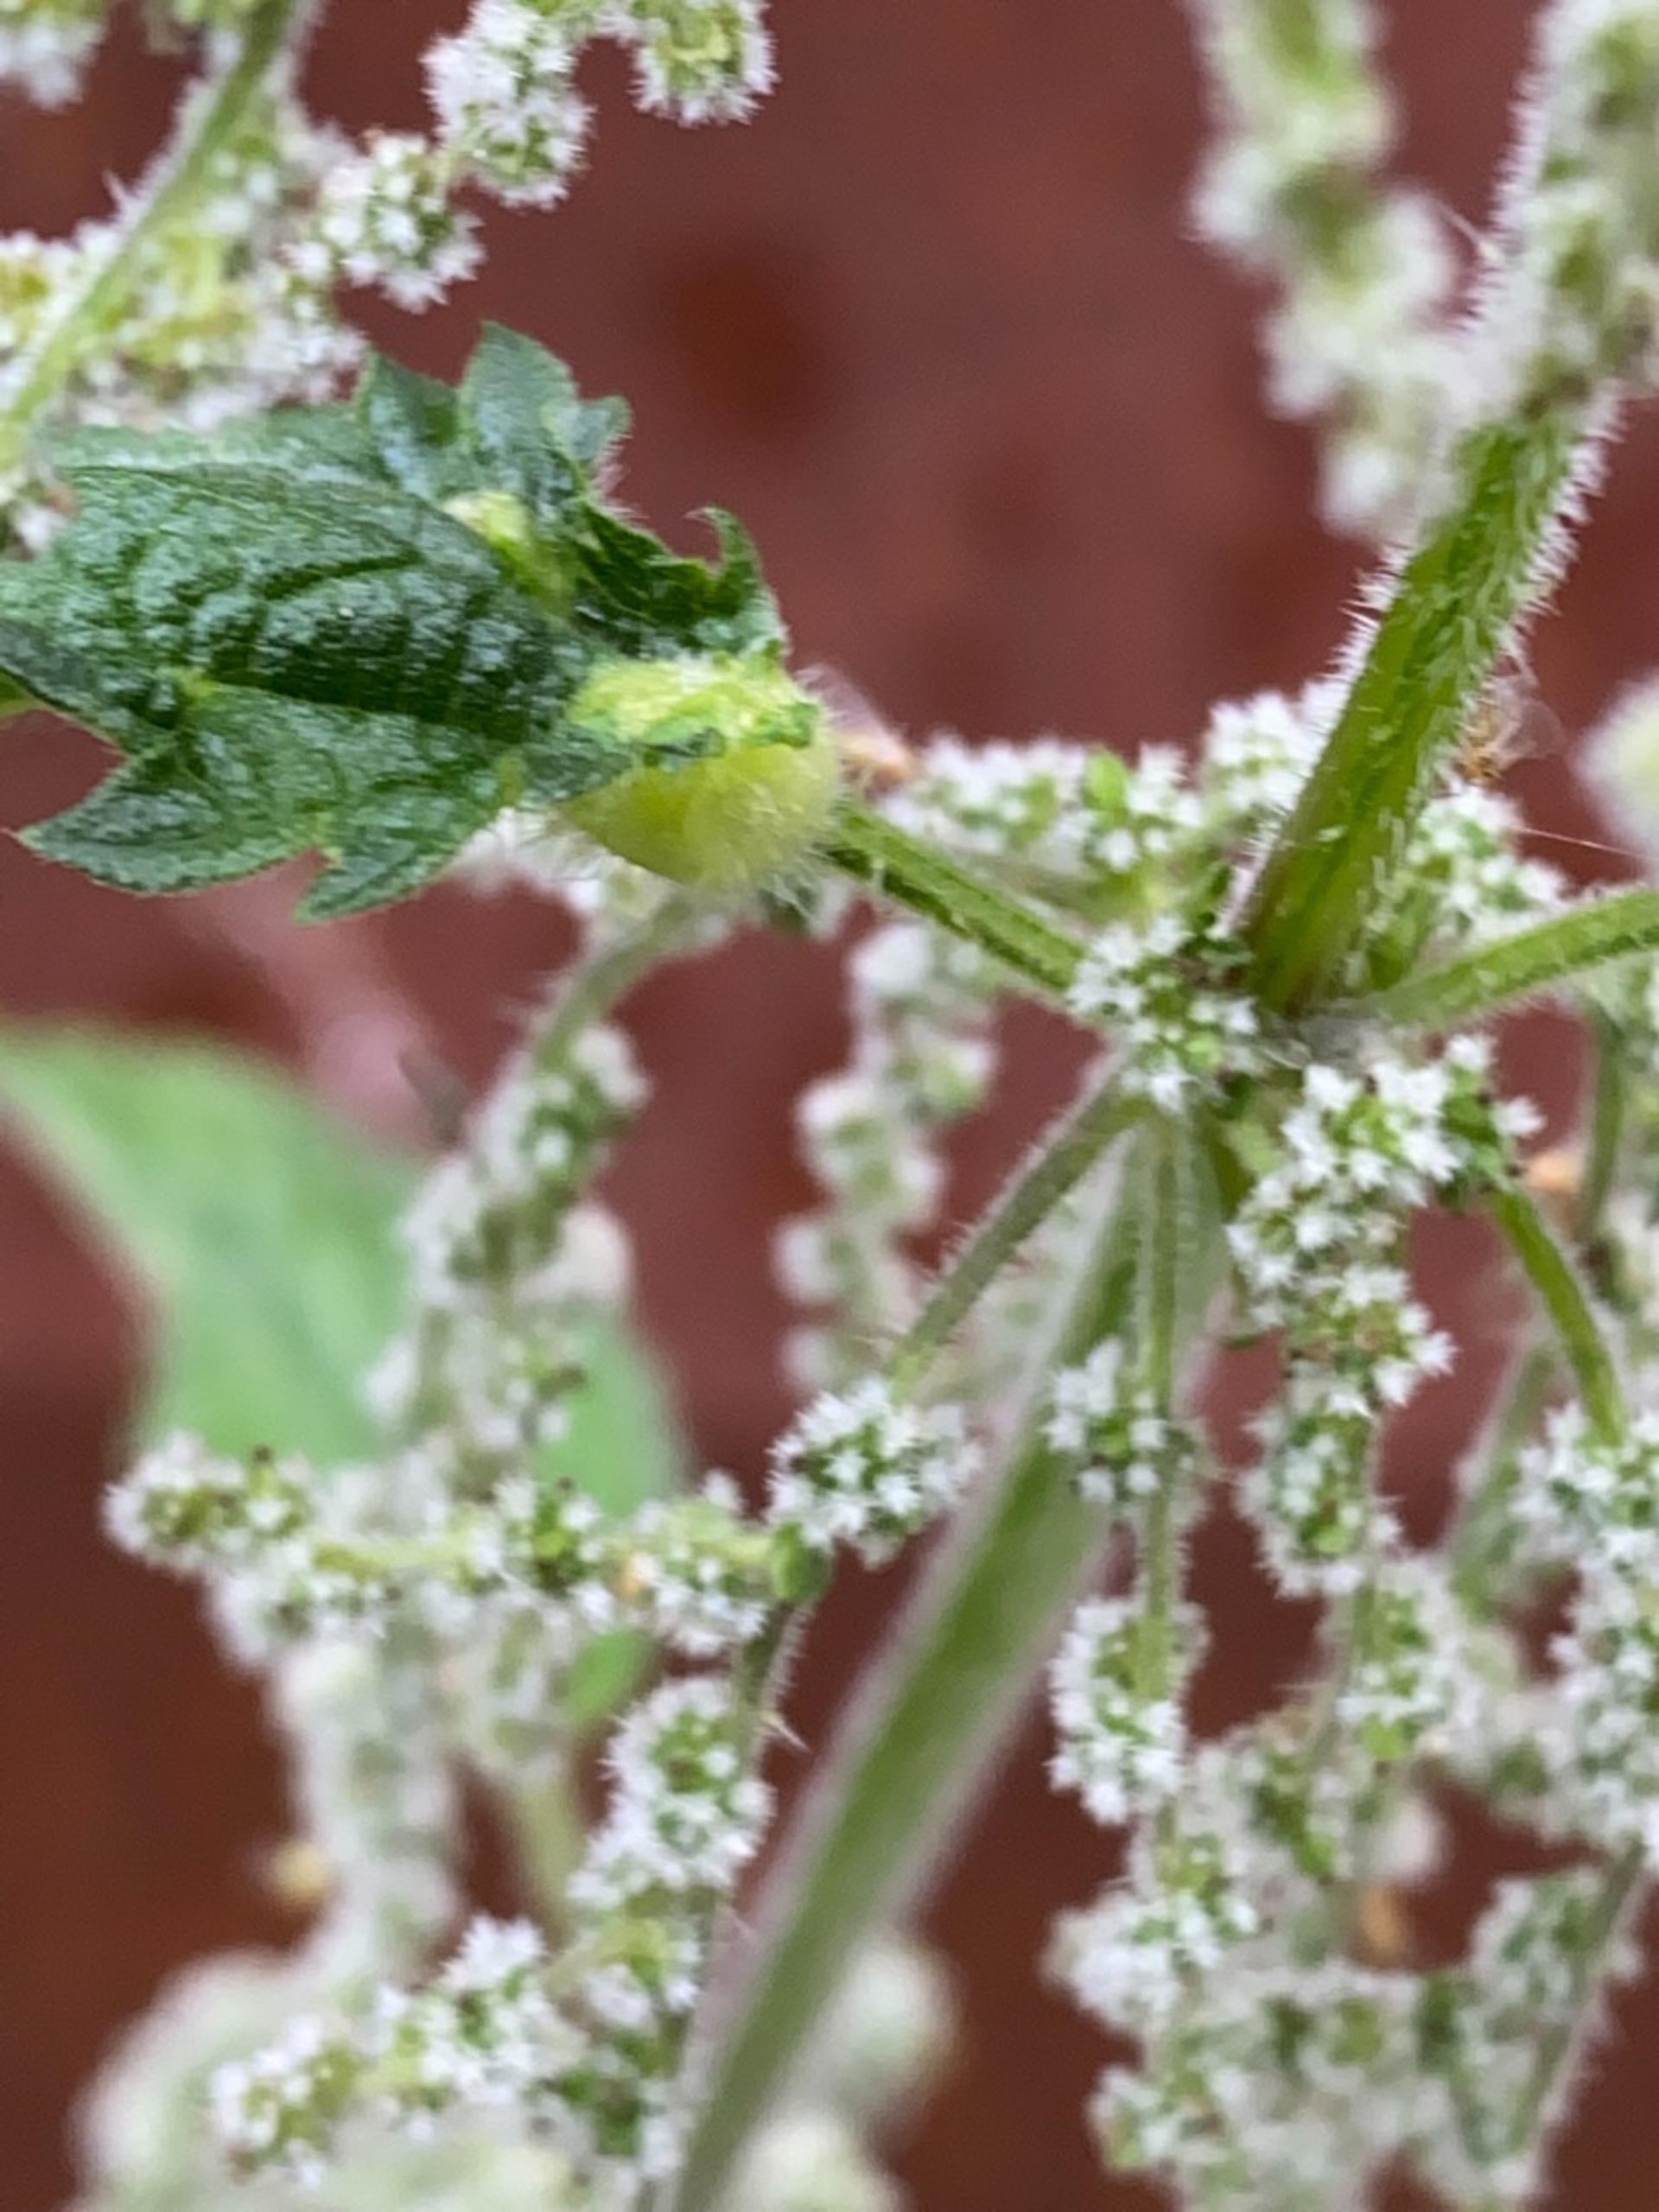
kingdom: Animalia
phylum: Arthropoda
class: Insecta
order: Diptera
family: Cecidomyiidae
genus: Dasineura
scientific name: Dasineura urticae
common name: Nældepunggalmyg
